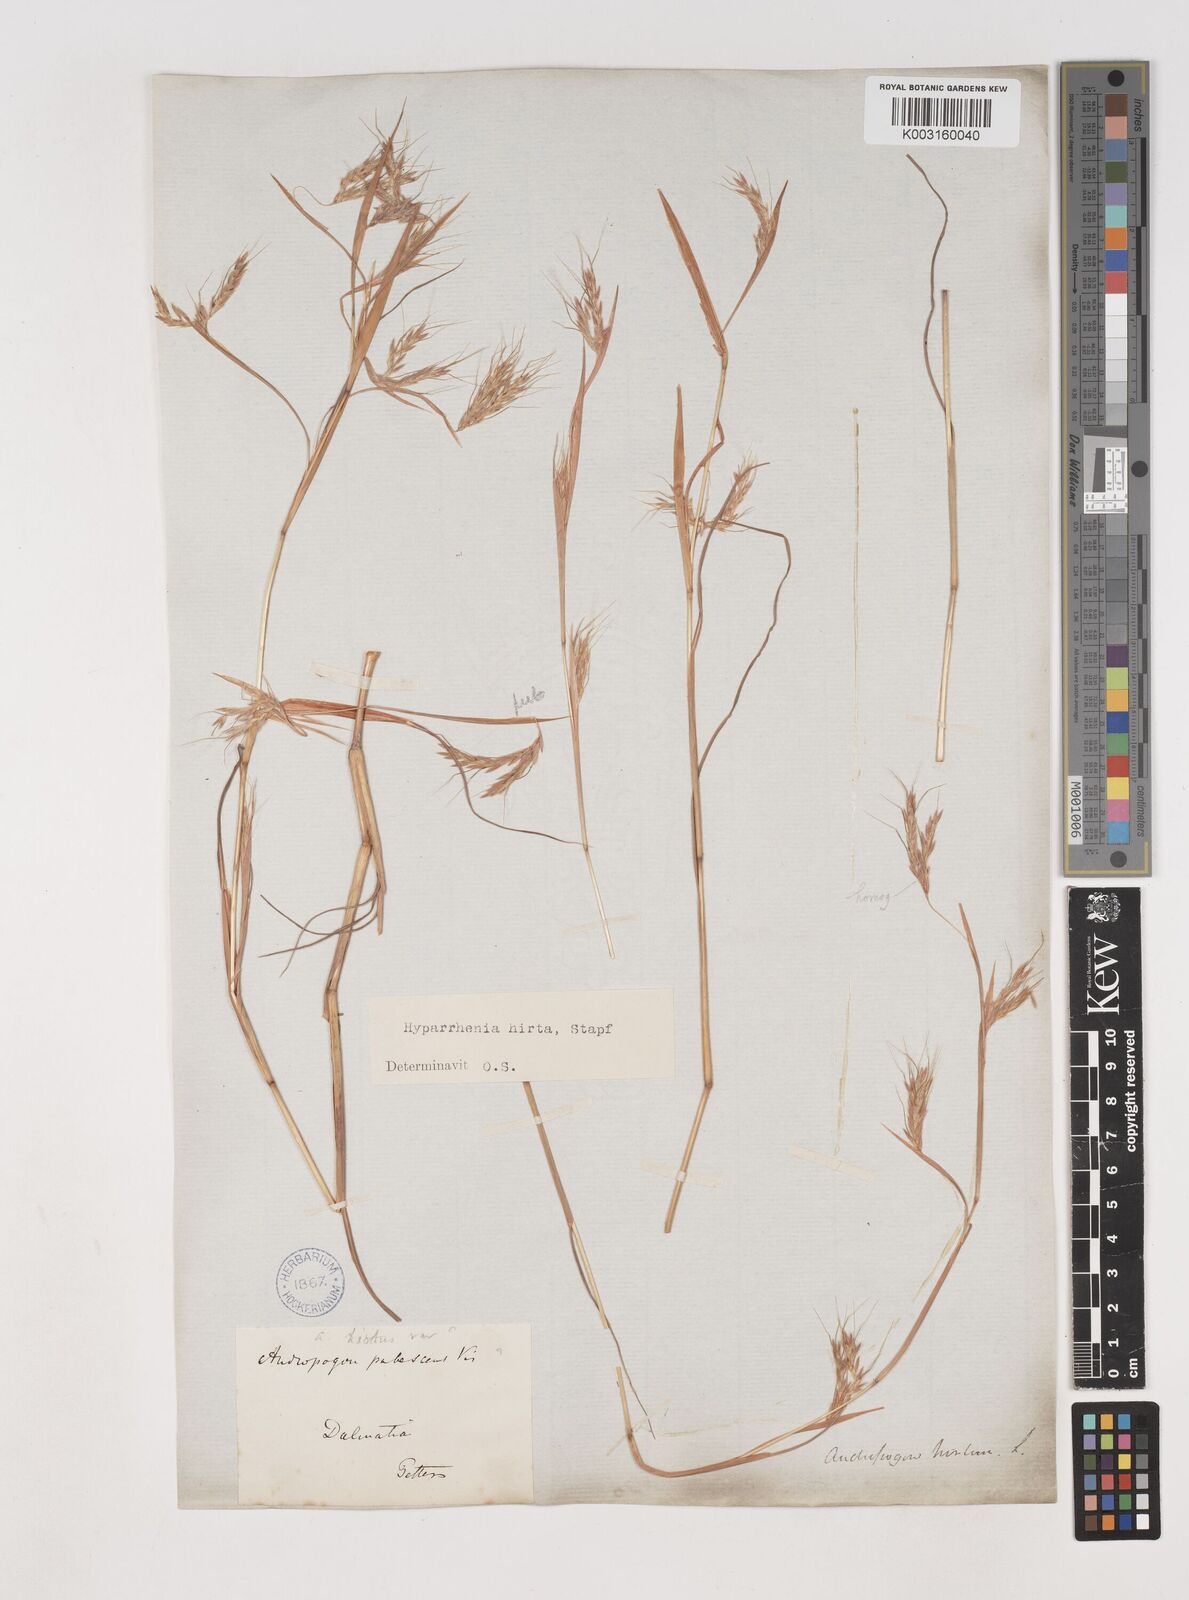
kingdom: Plantae
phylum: Tracheophyta
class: Liliopsida
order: Poales
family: Poaceae
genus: Hyparrhenia
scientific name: Hyparrhenia hirta
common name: Thatching grass
